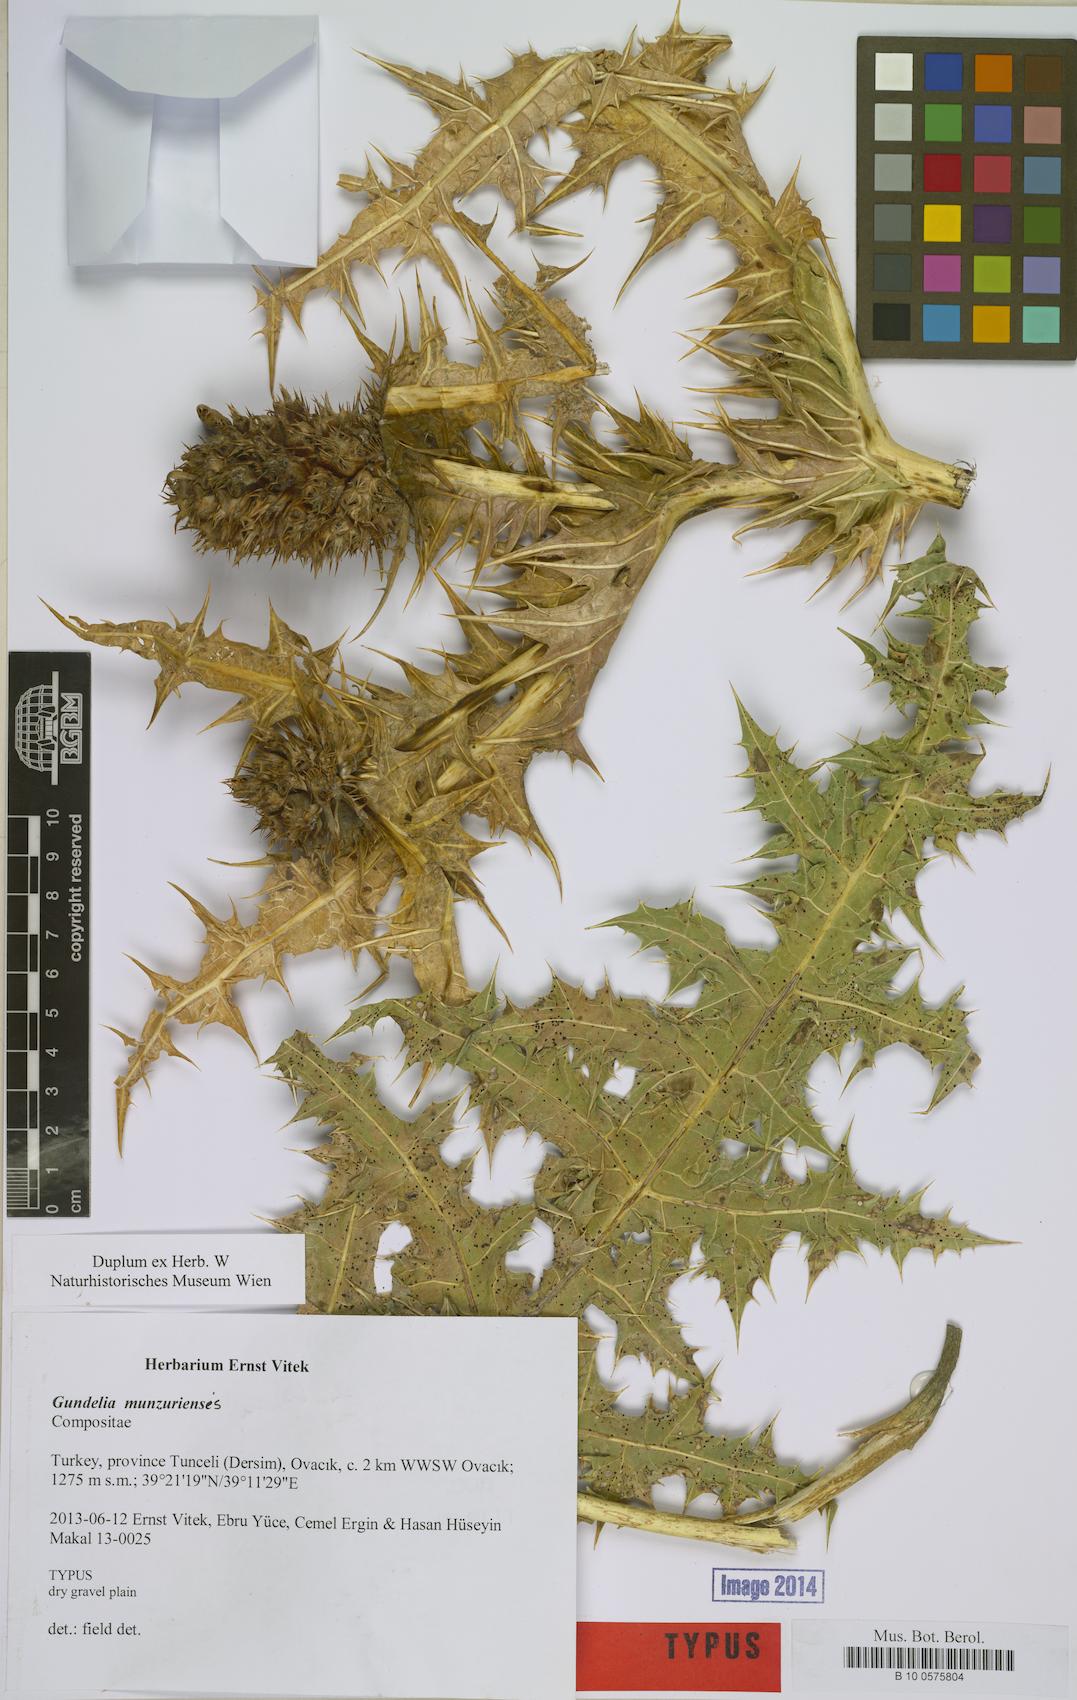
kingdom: Plantae
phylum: Tracheophyta
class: Magnoliopsida
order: Asterales
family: Asteraceae
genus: Gundelia
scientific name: Gundelia munzuriensis
